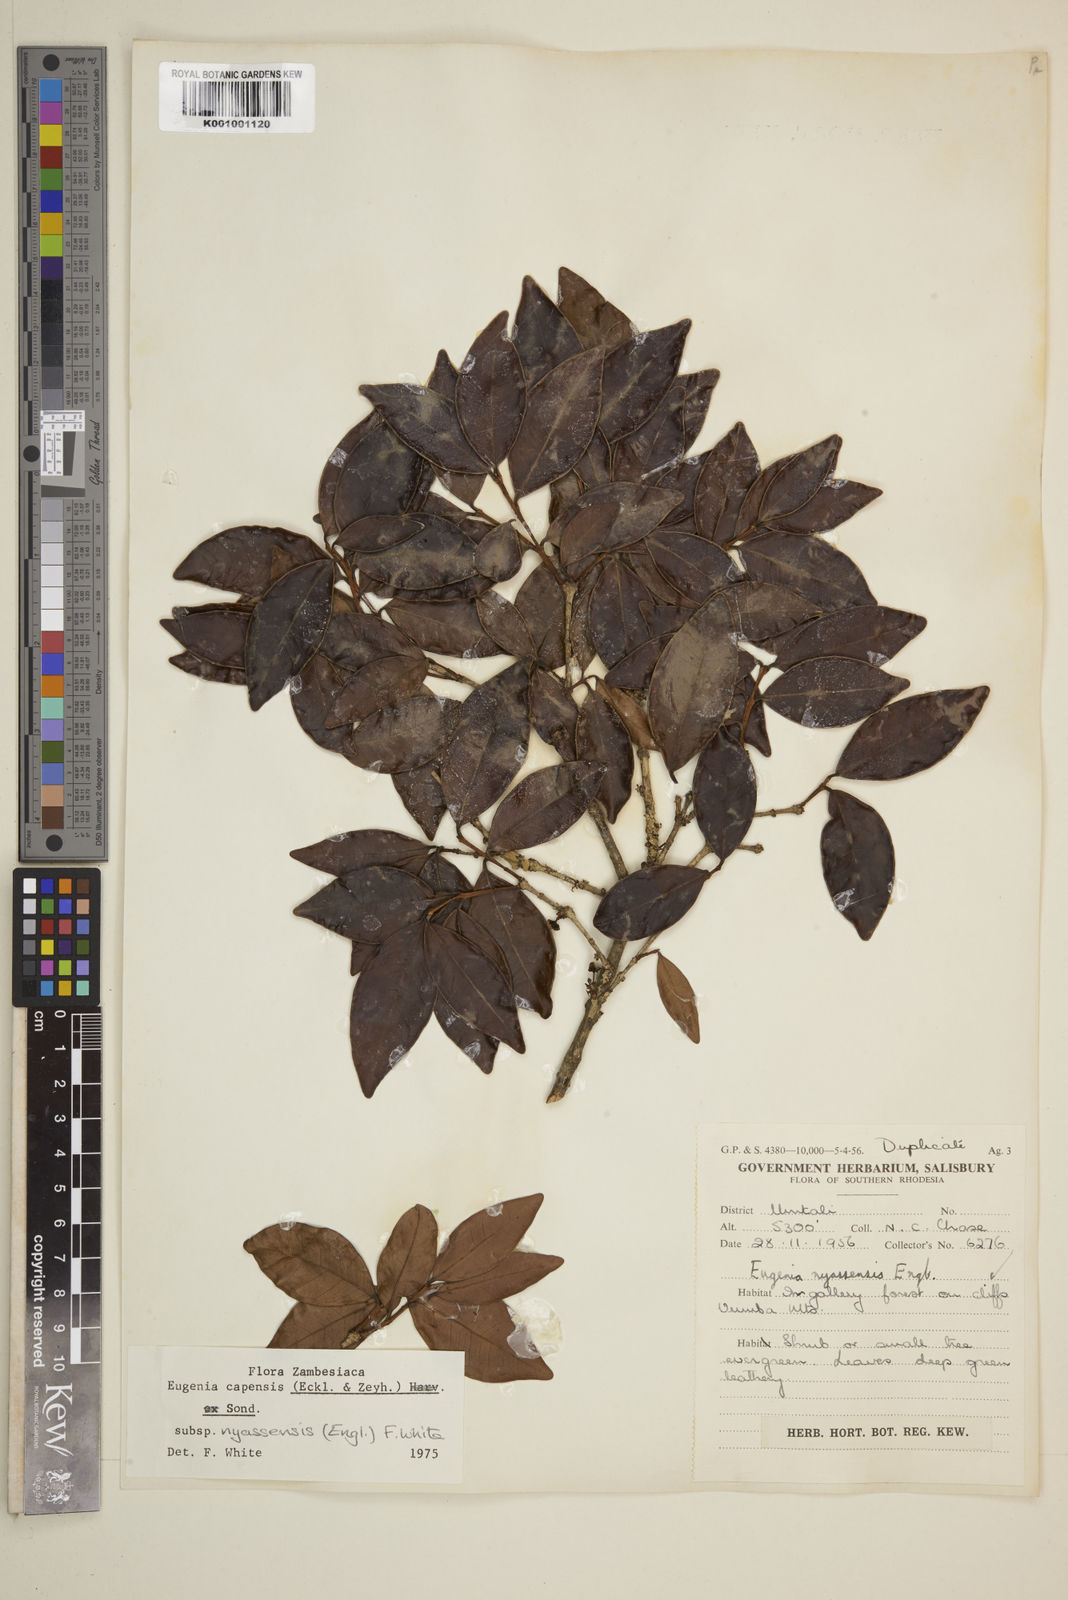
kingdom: Plantae
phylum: Tracheophyta
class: Magnoliopsida
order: Myrtales
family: Myrtaceae
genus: Eugenia
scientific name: Eugenia capensis
